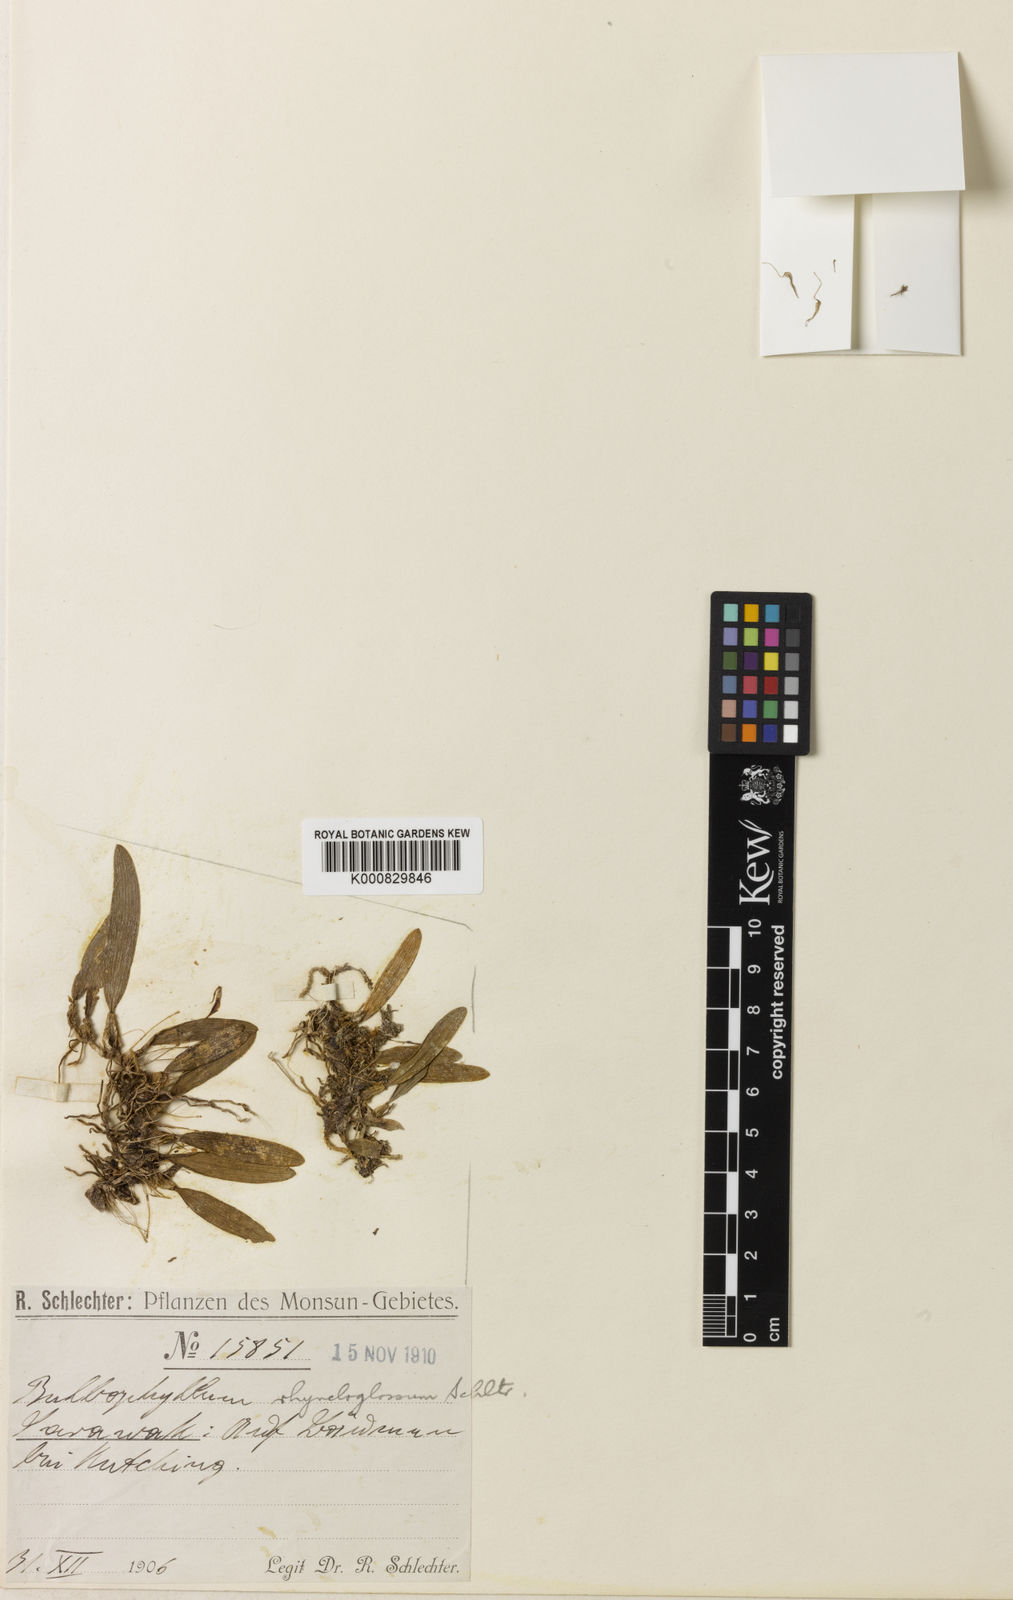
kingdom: Plantae
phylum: Tracheophyta
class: Liliopsida
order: Asparagales
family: Orchidaceae
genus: Bulbophyllum
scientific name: Bulbophyllum rhynchoglossum
